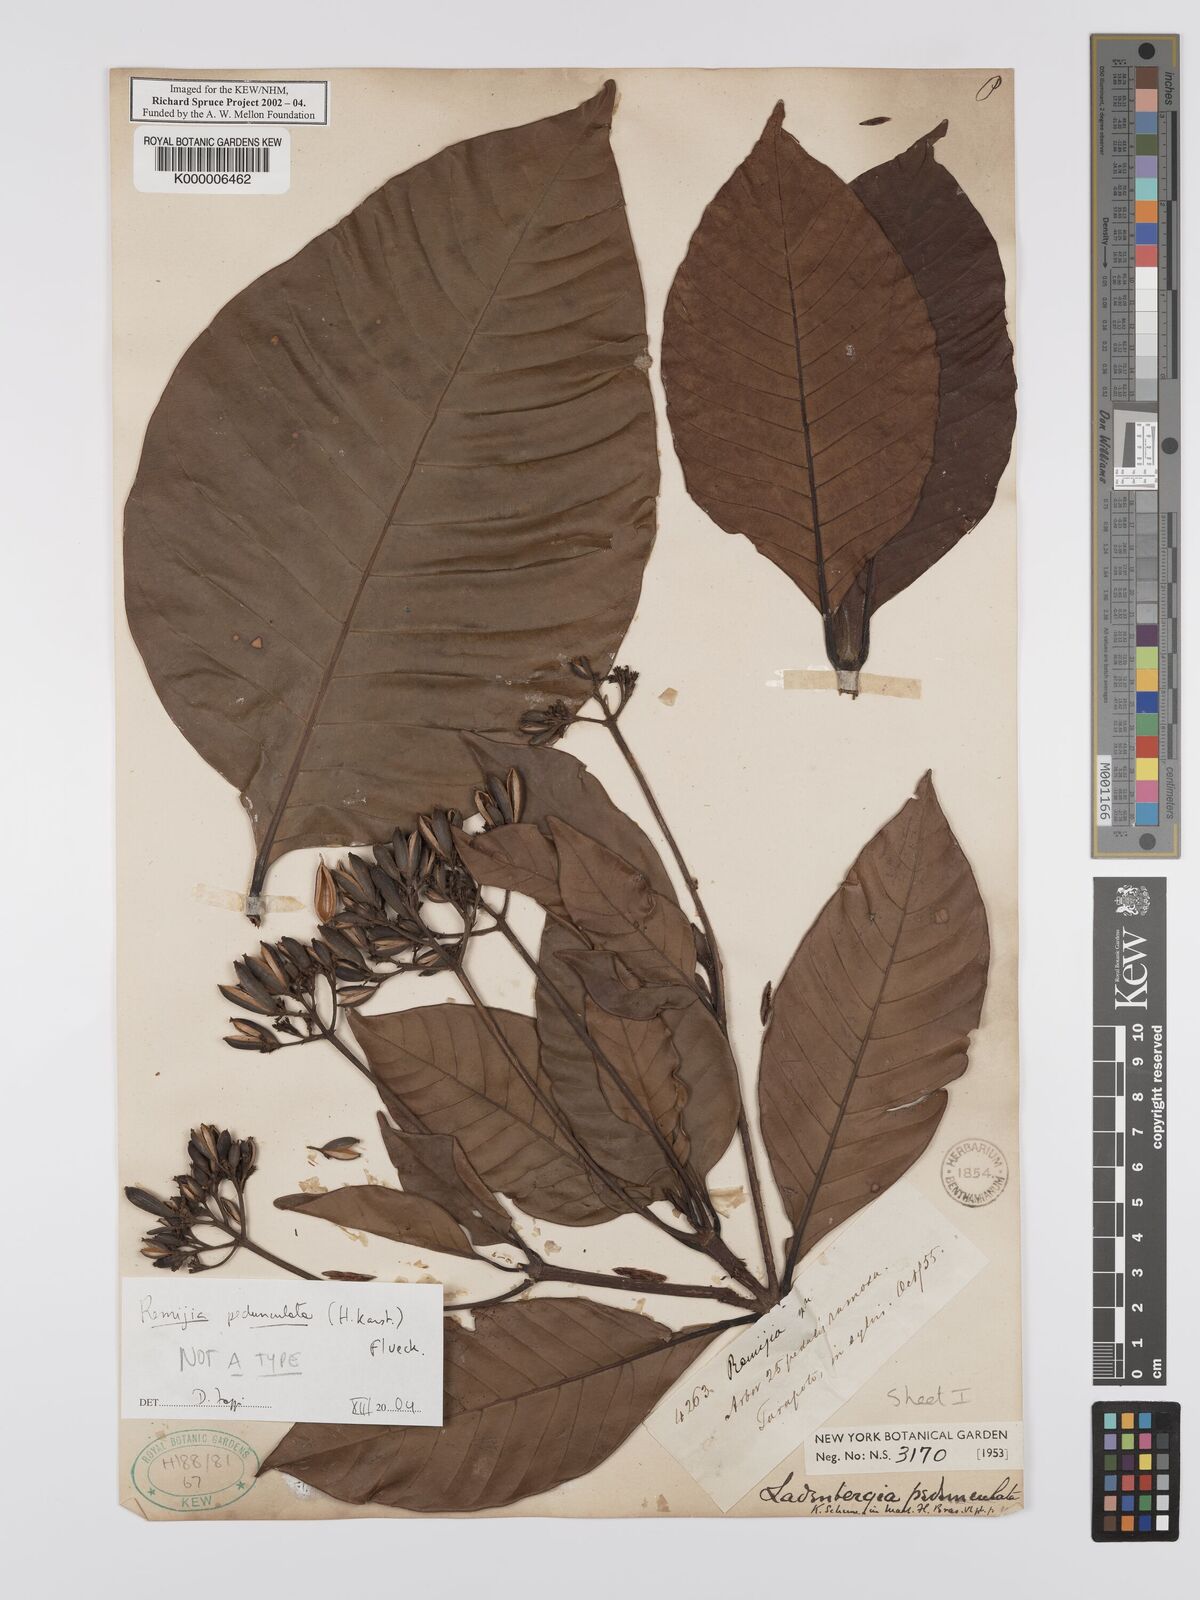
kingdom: Plantae
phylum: Tracheophyta
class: Magnoliopsida
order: Gentianales
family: Rubiaceae
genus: Ciliosemina
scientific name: Ciliosemina pedunculata
